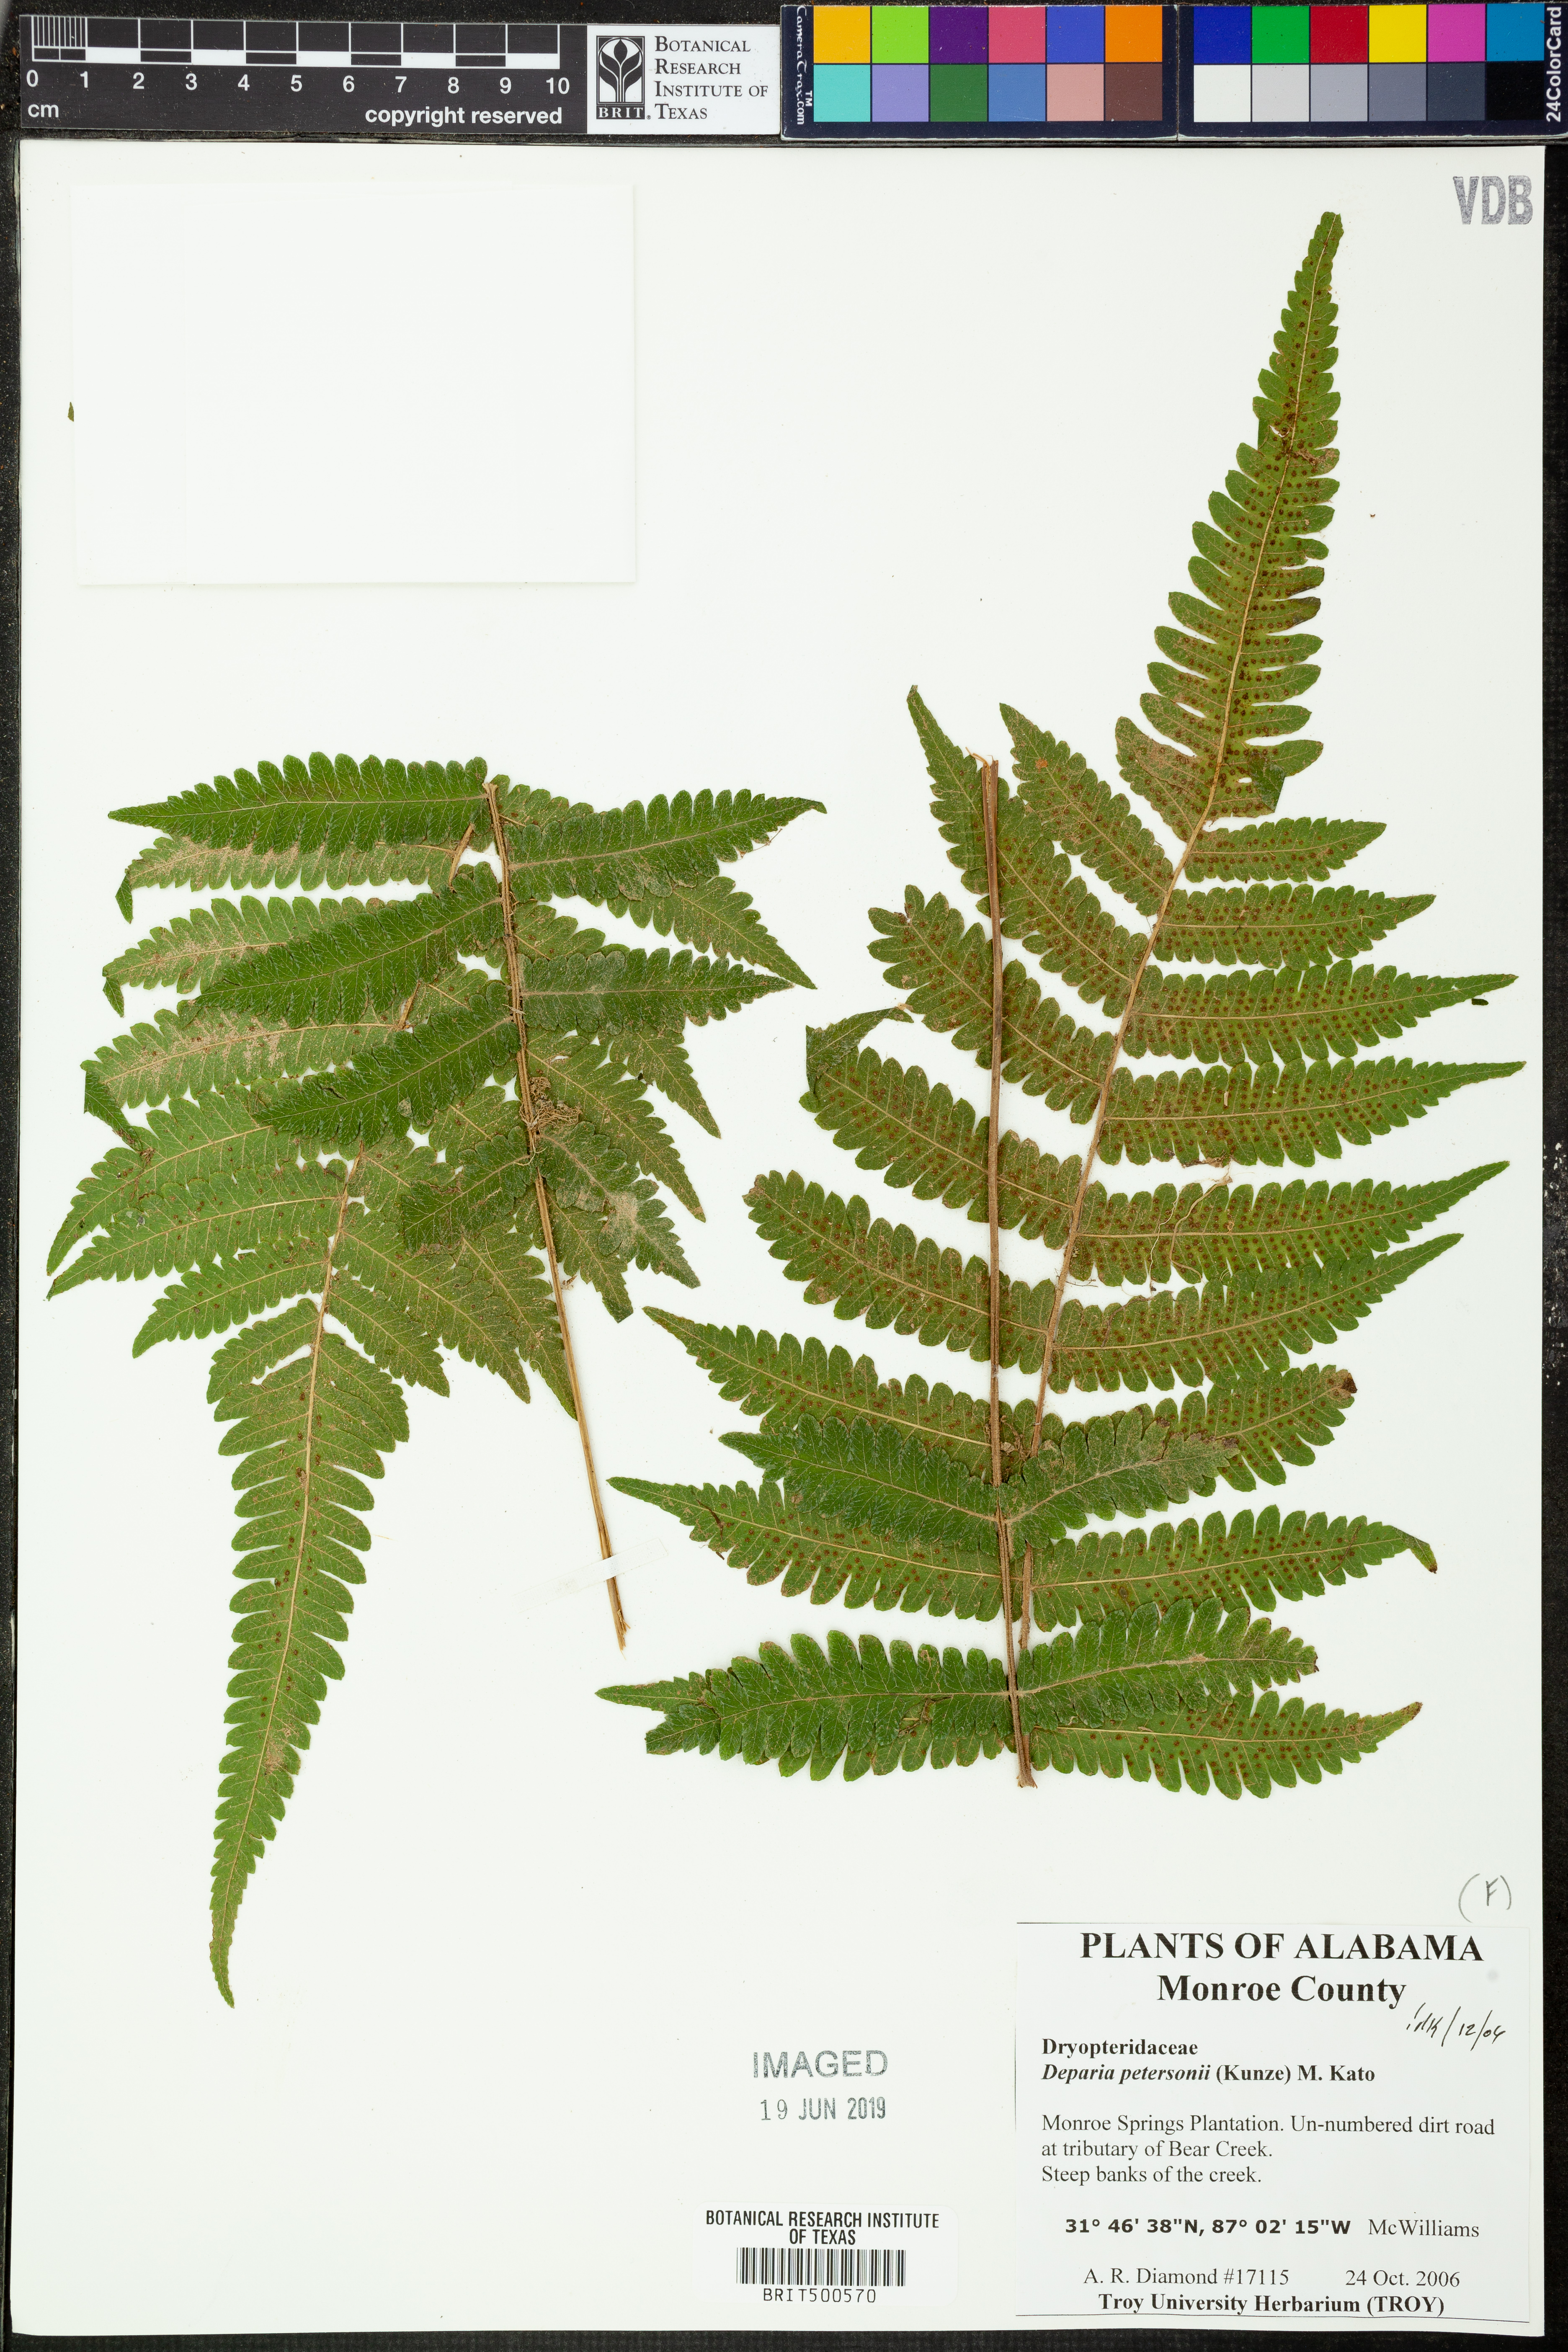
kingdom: Plantae
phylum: Tracheophyta
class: Polypodiopsida
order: Polypodiales
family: Athyriaceae
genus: Deparia
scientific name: Deparia petersenii
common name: Japanese false spleenwort
